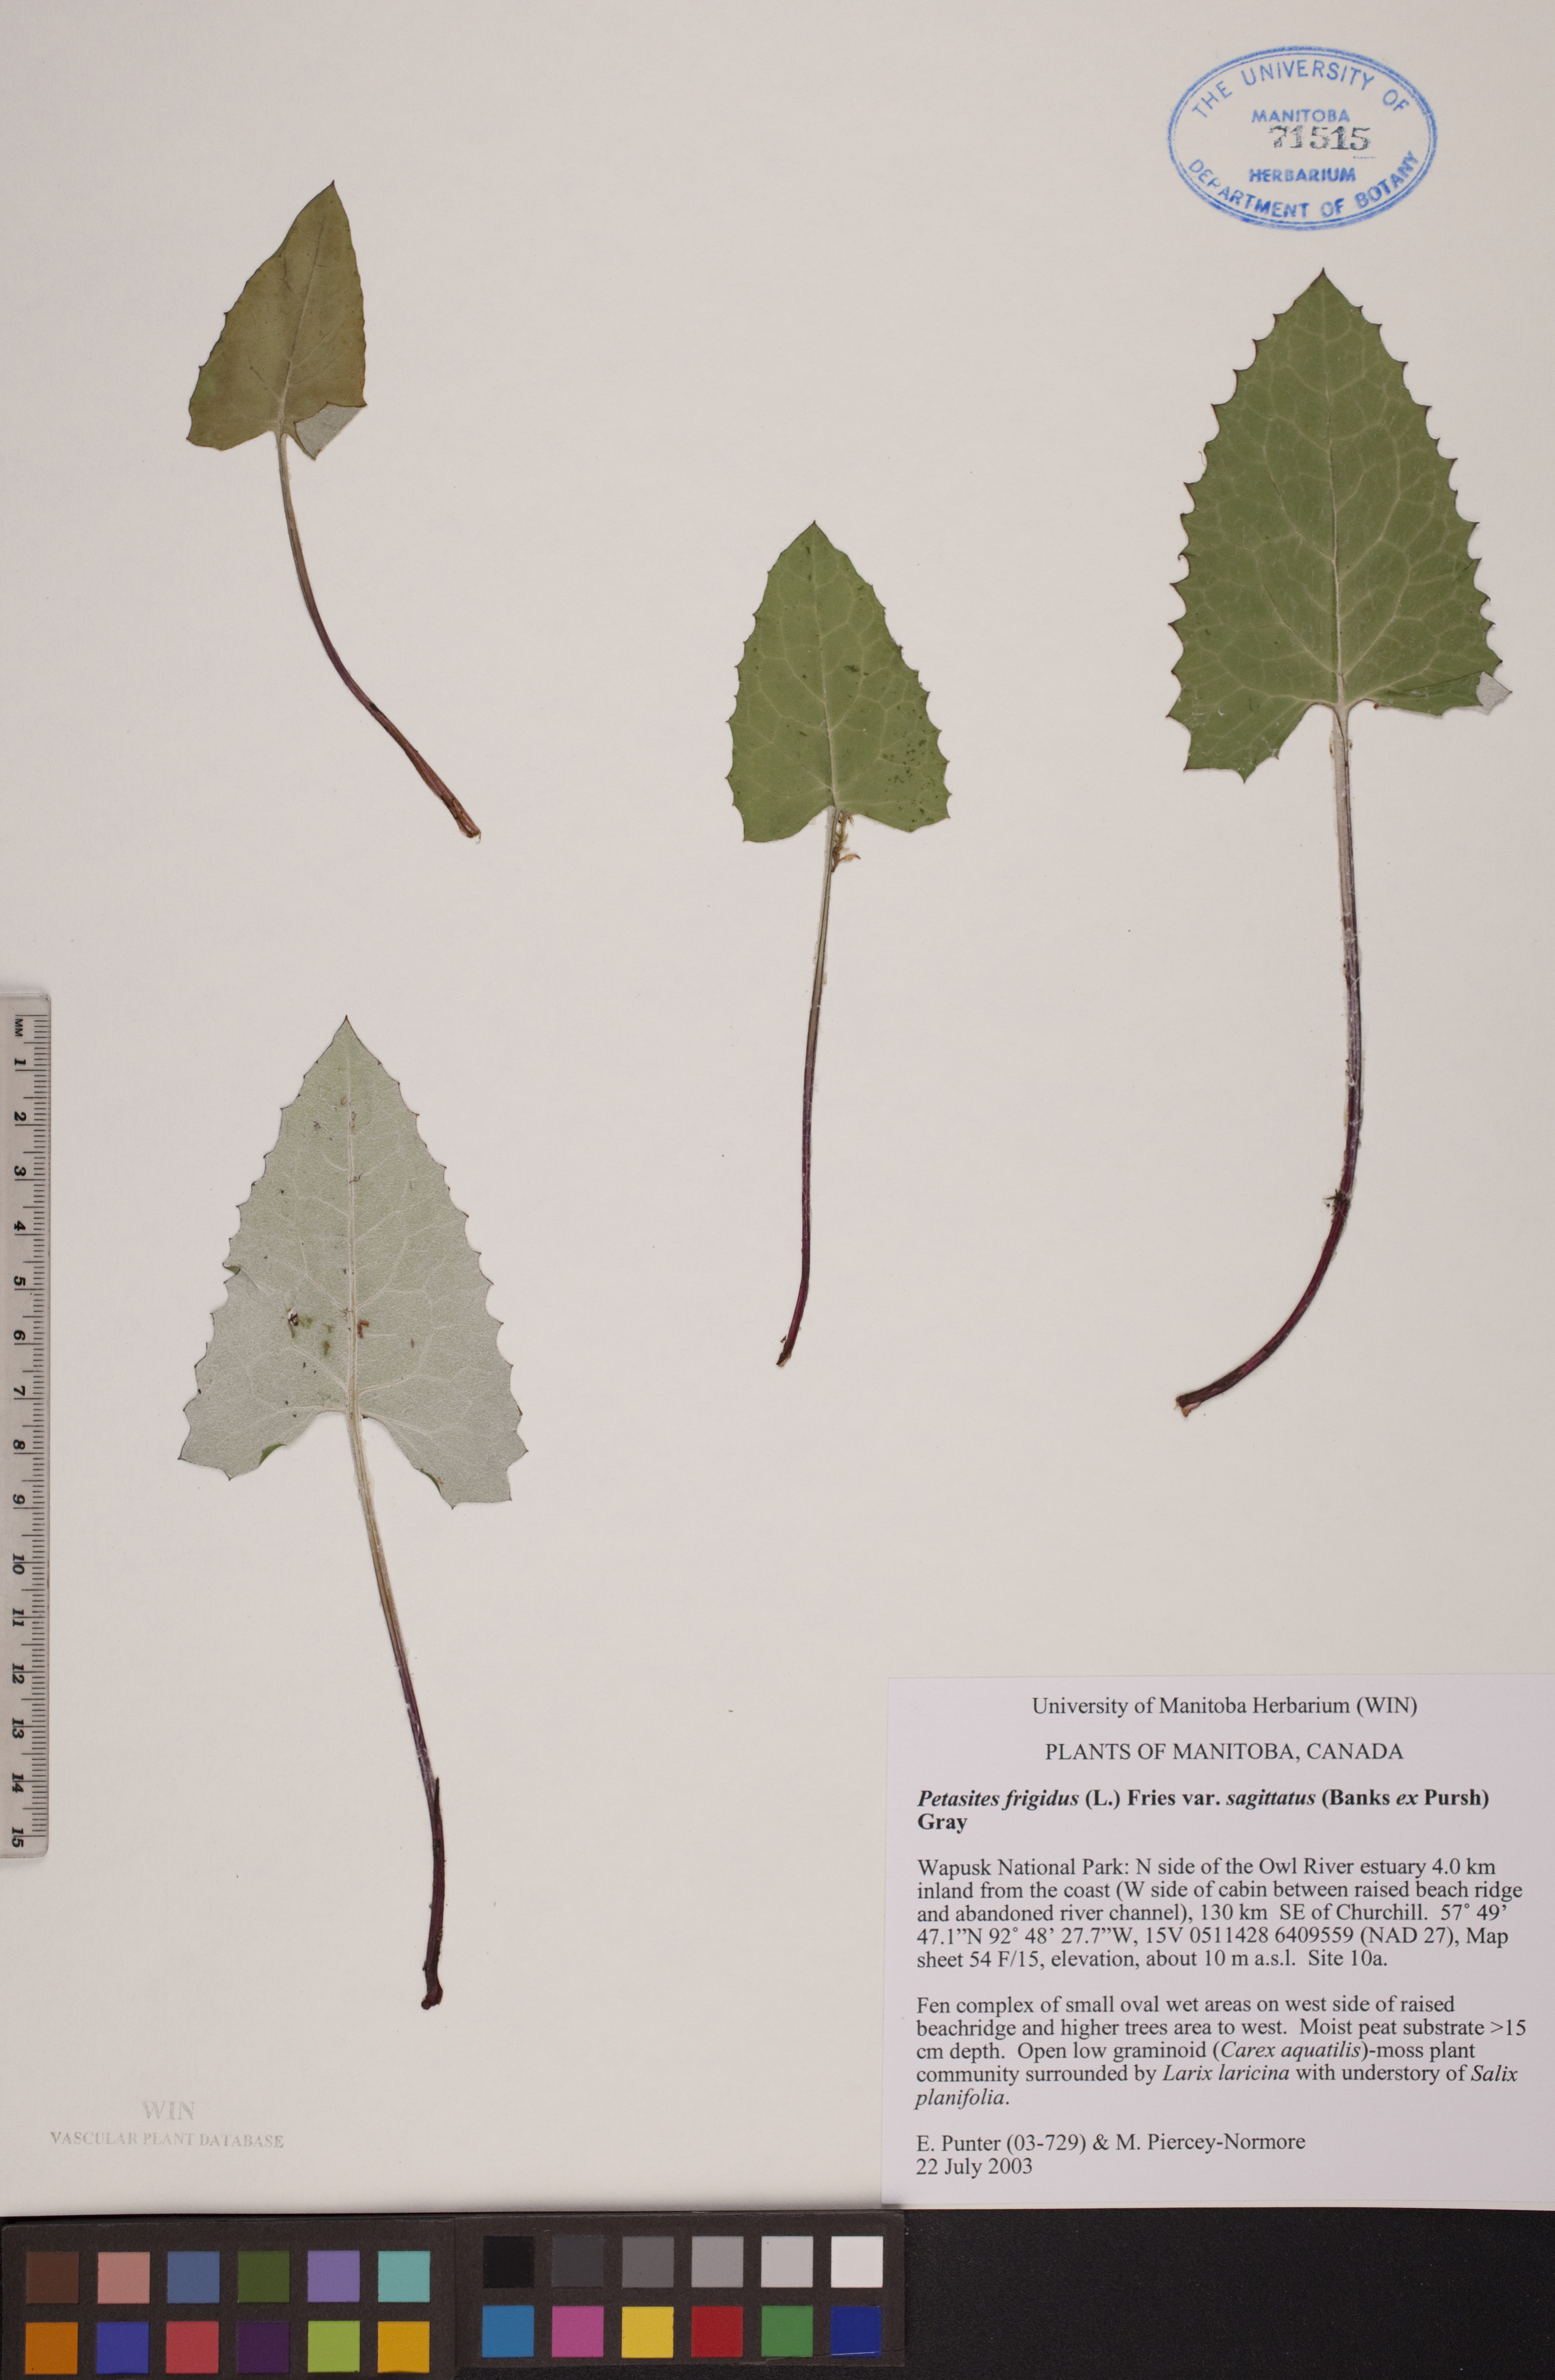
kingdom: Plantae
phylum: Tracheophyta
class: Magnoliopsida
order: Asterales
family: Asteraceae
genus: Petasites
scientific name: Petasites frigidus
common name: Arctic butterbur
